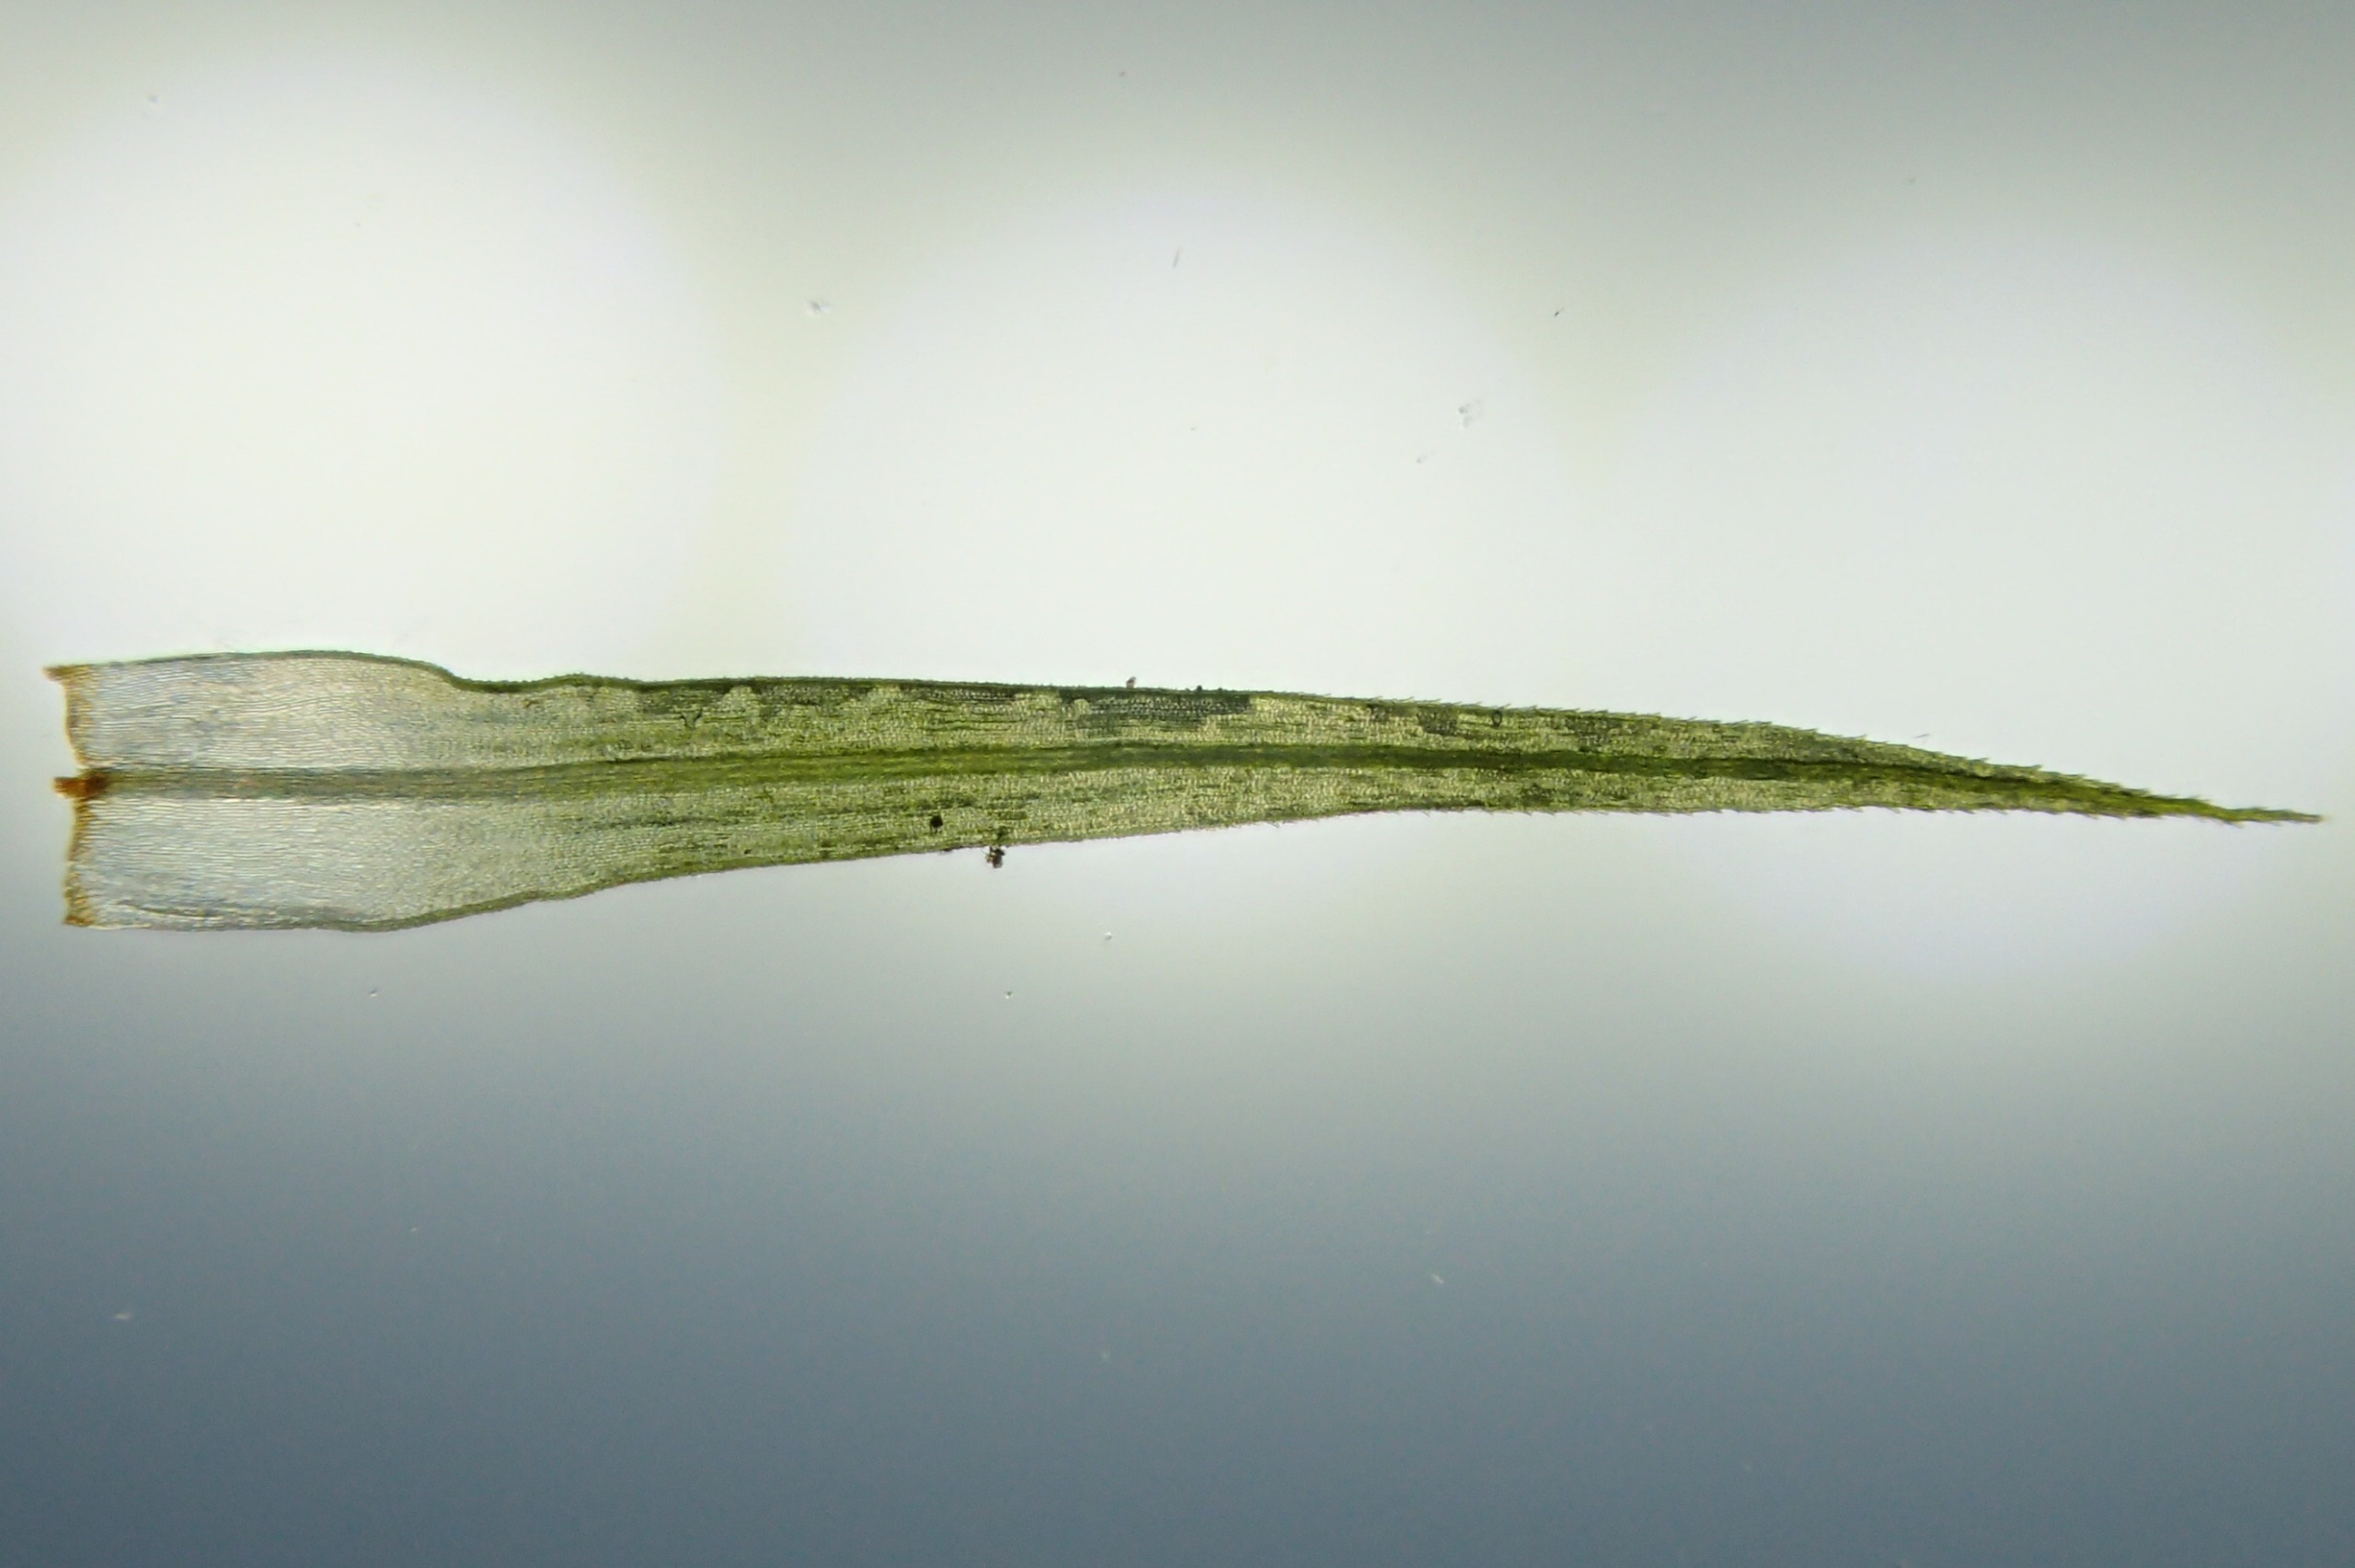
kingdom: Plantae
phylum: Bryophyta
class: Bryopsida
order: Bartramiales
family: Bartramiaceae
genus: Bartramia
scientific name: Bartramia pomiformis
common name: Gulgrøn kuglekapsel
